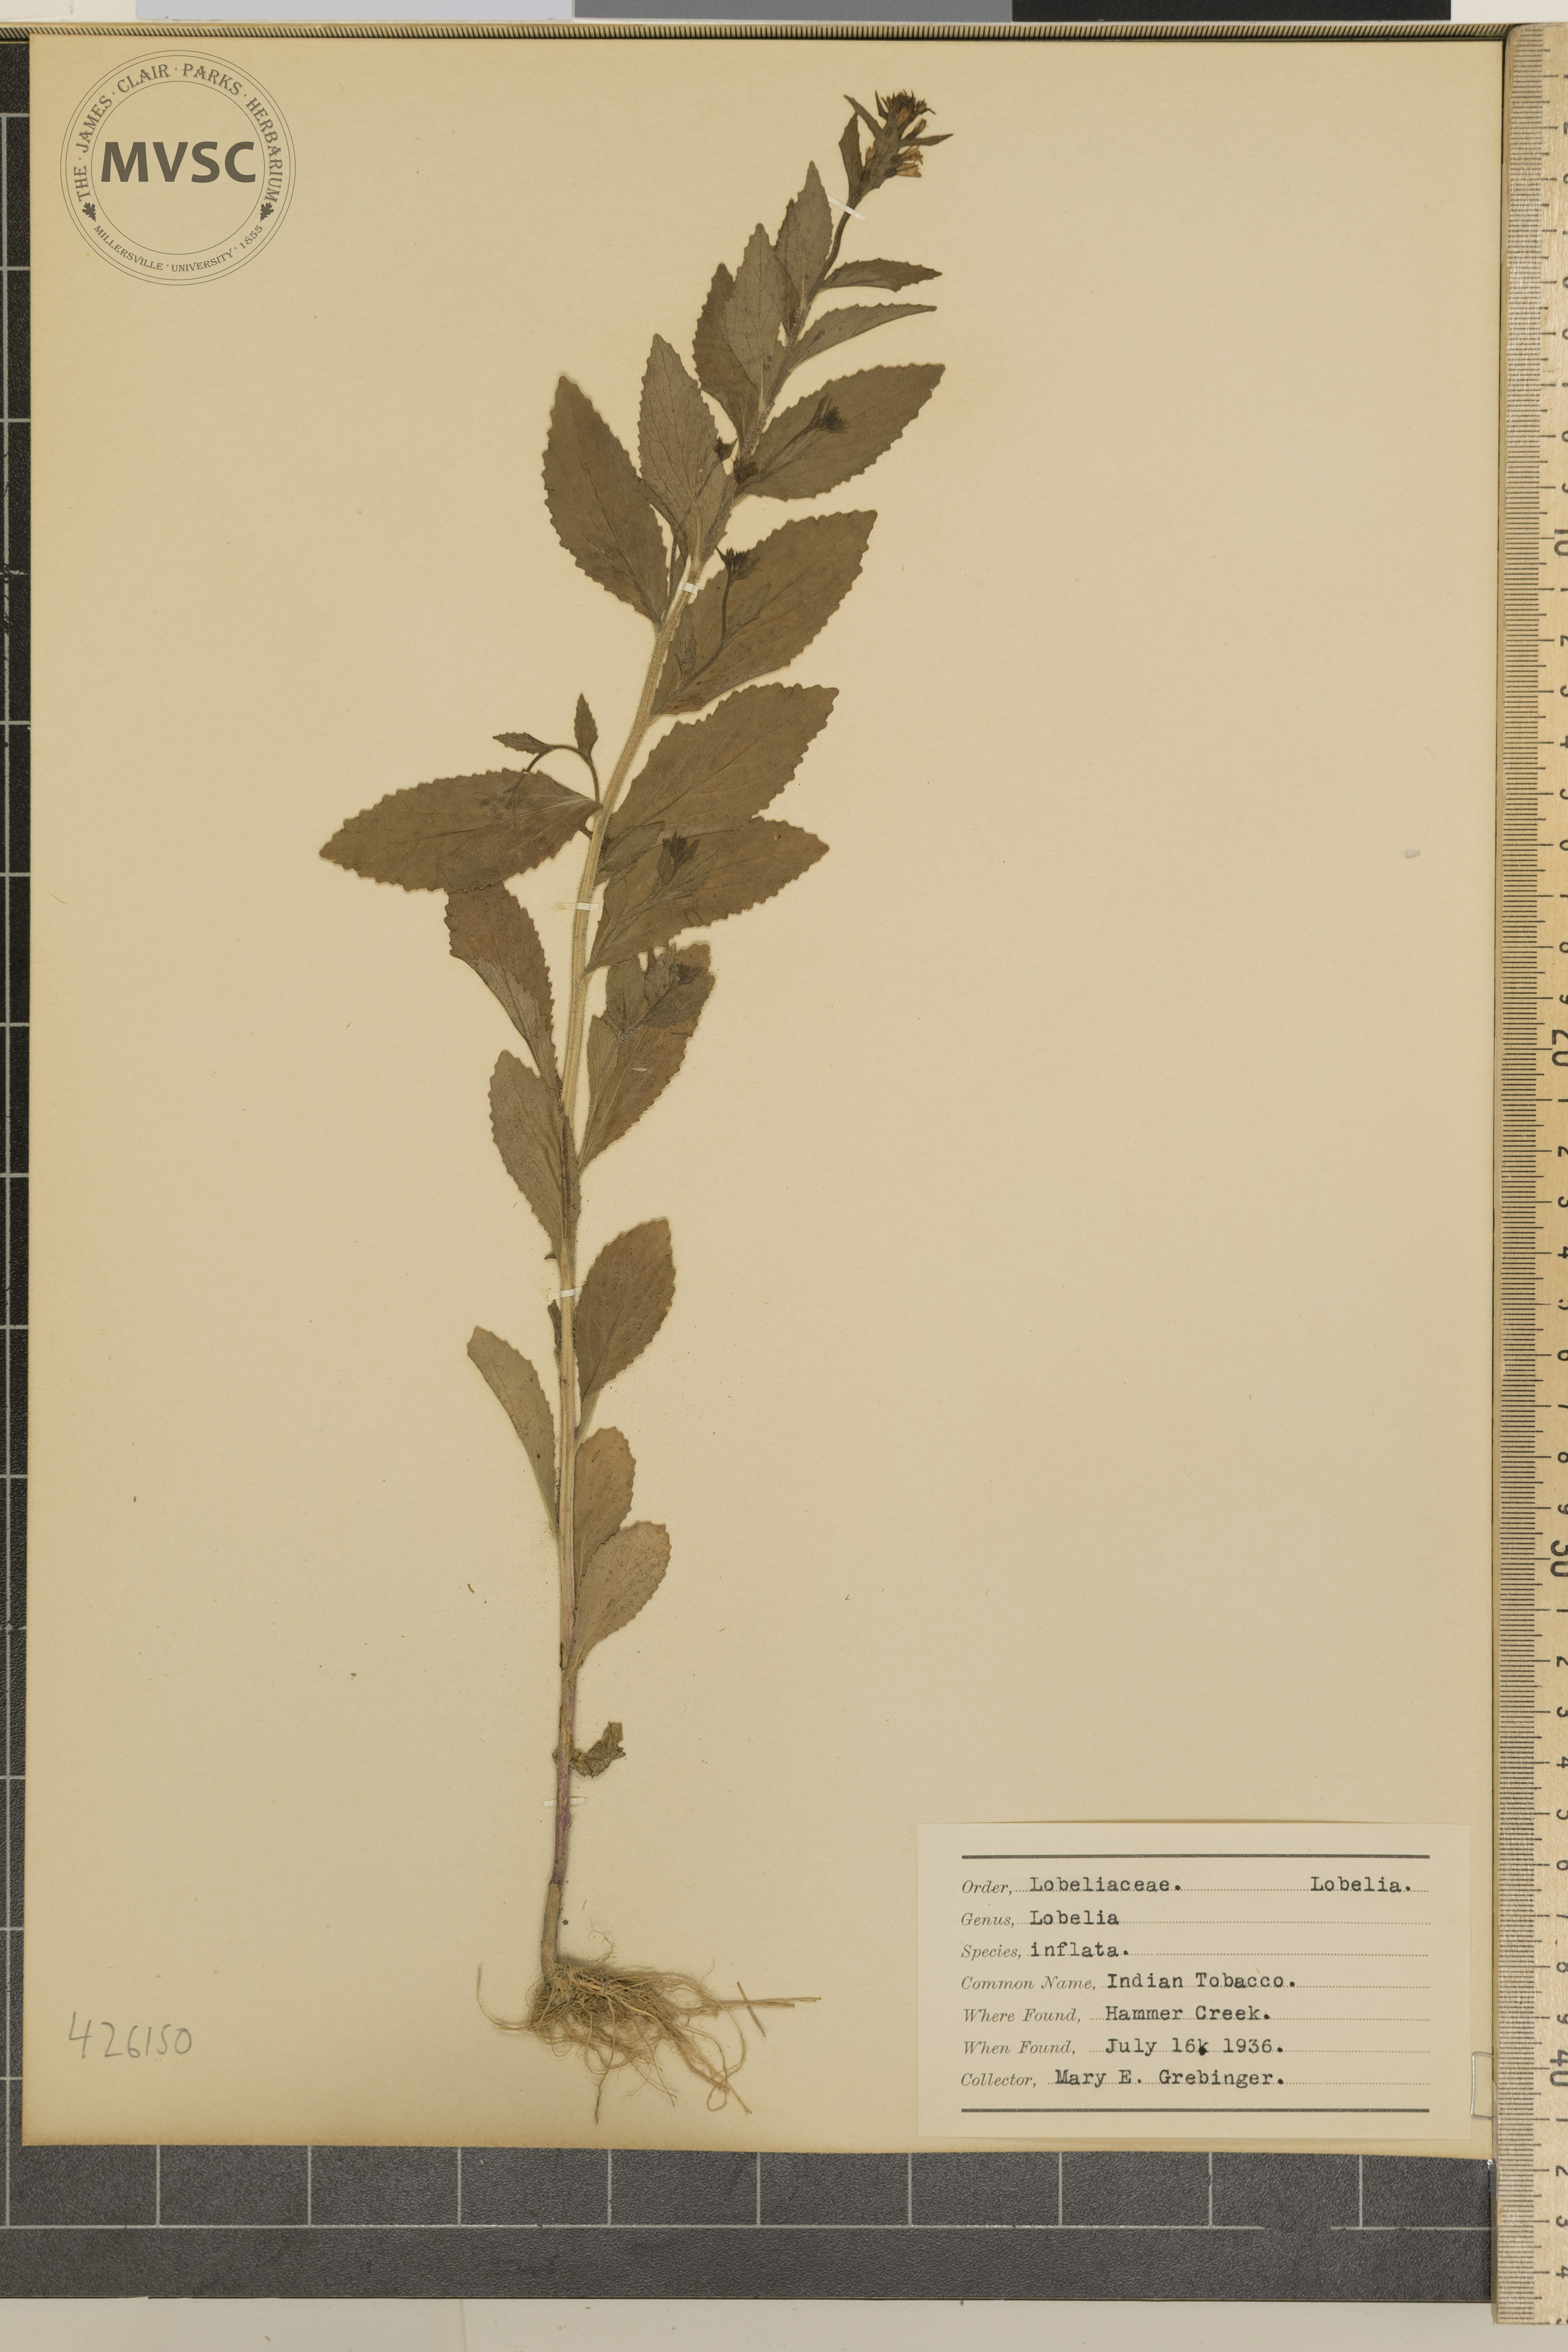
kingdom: Plantae
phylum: Tracheophyta
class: Magnoliopsida
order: Asterales
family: Campanulaceae
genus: Lobelia
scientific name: Lobelia inflata
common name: Indian tobacco
